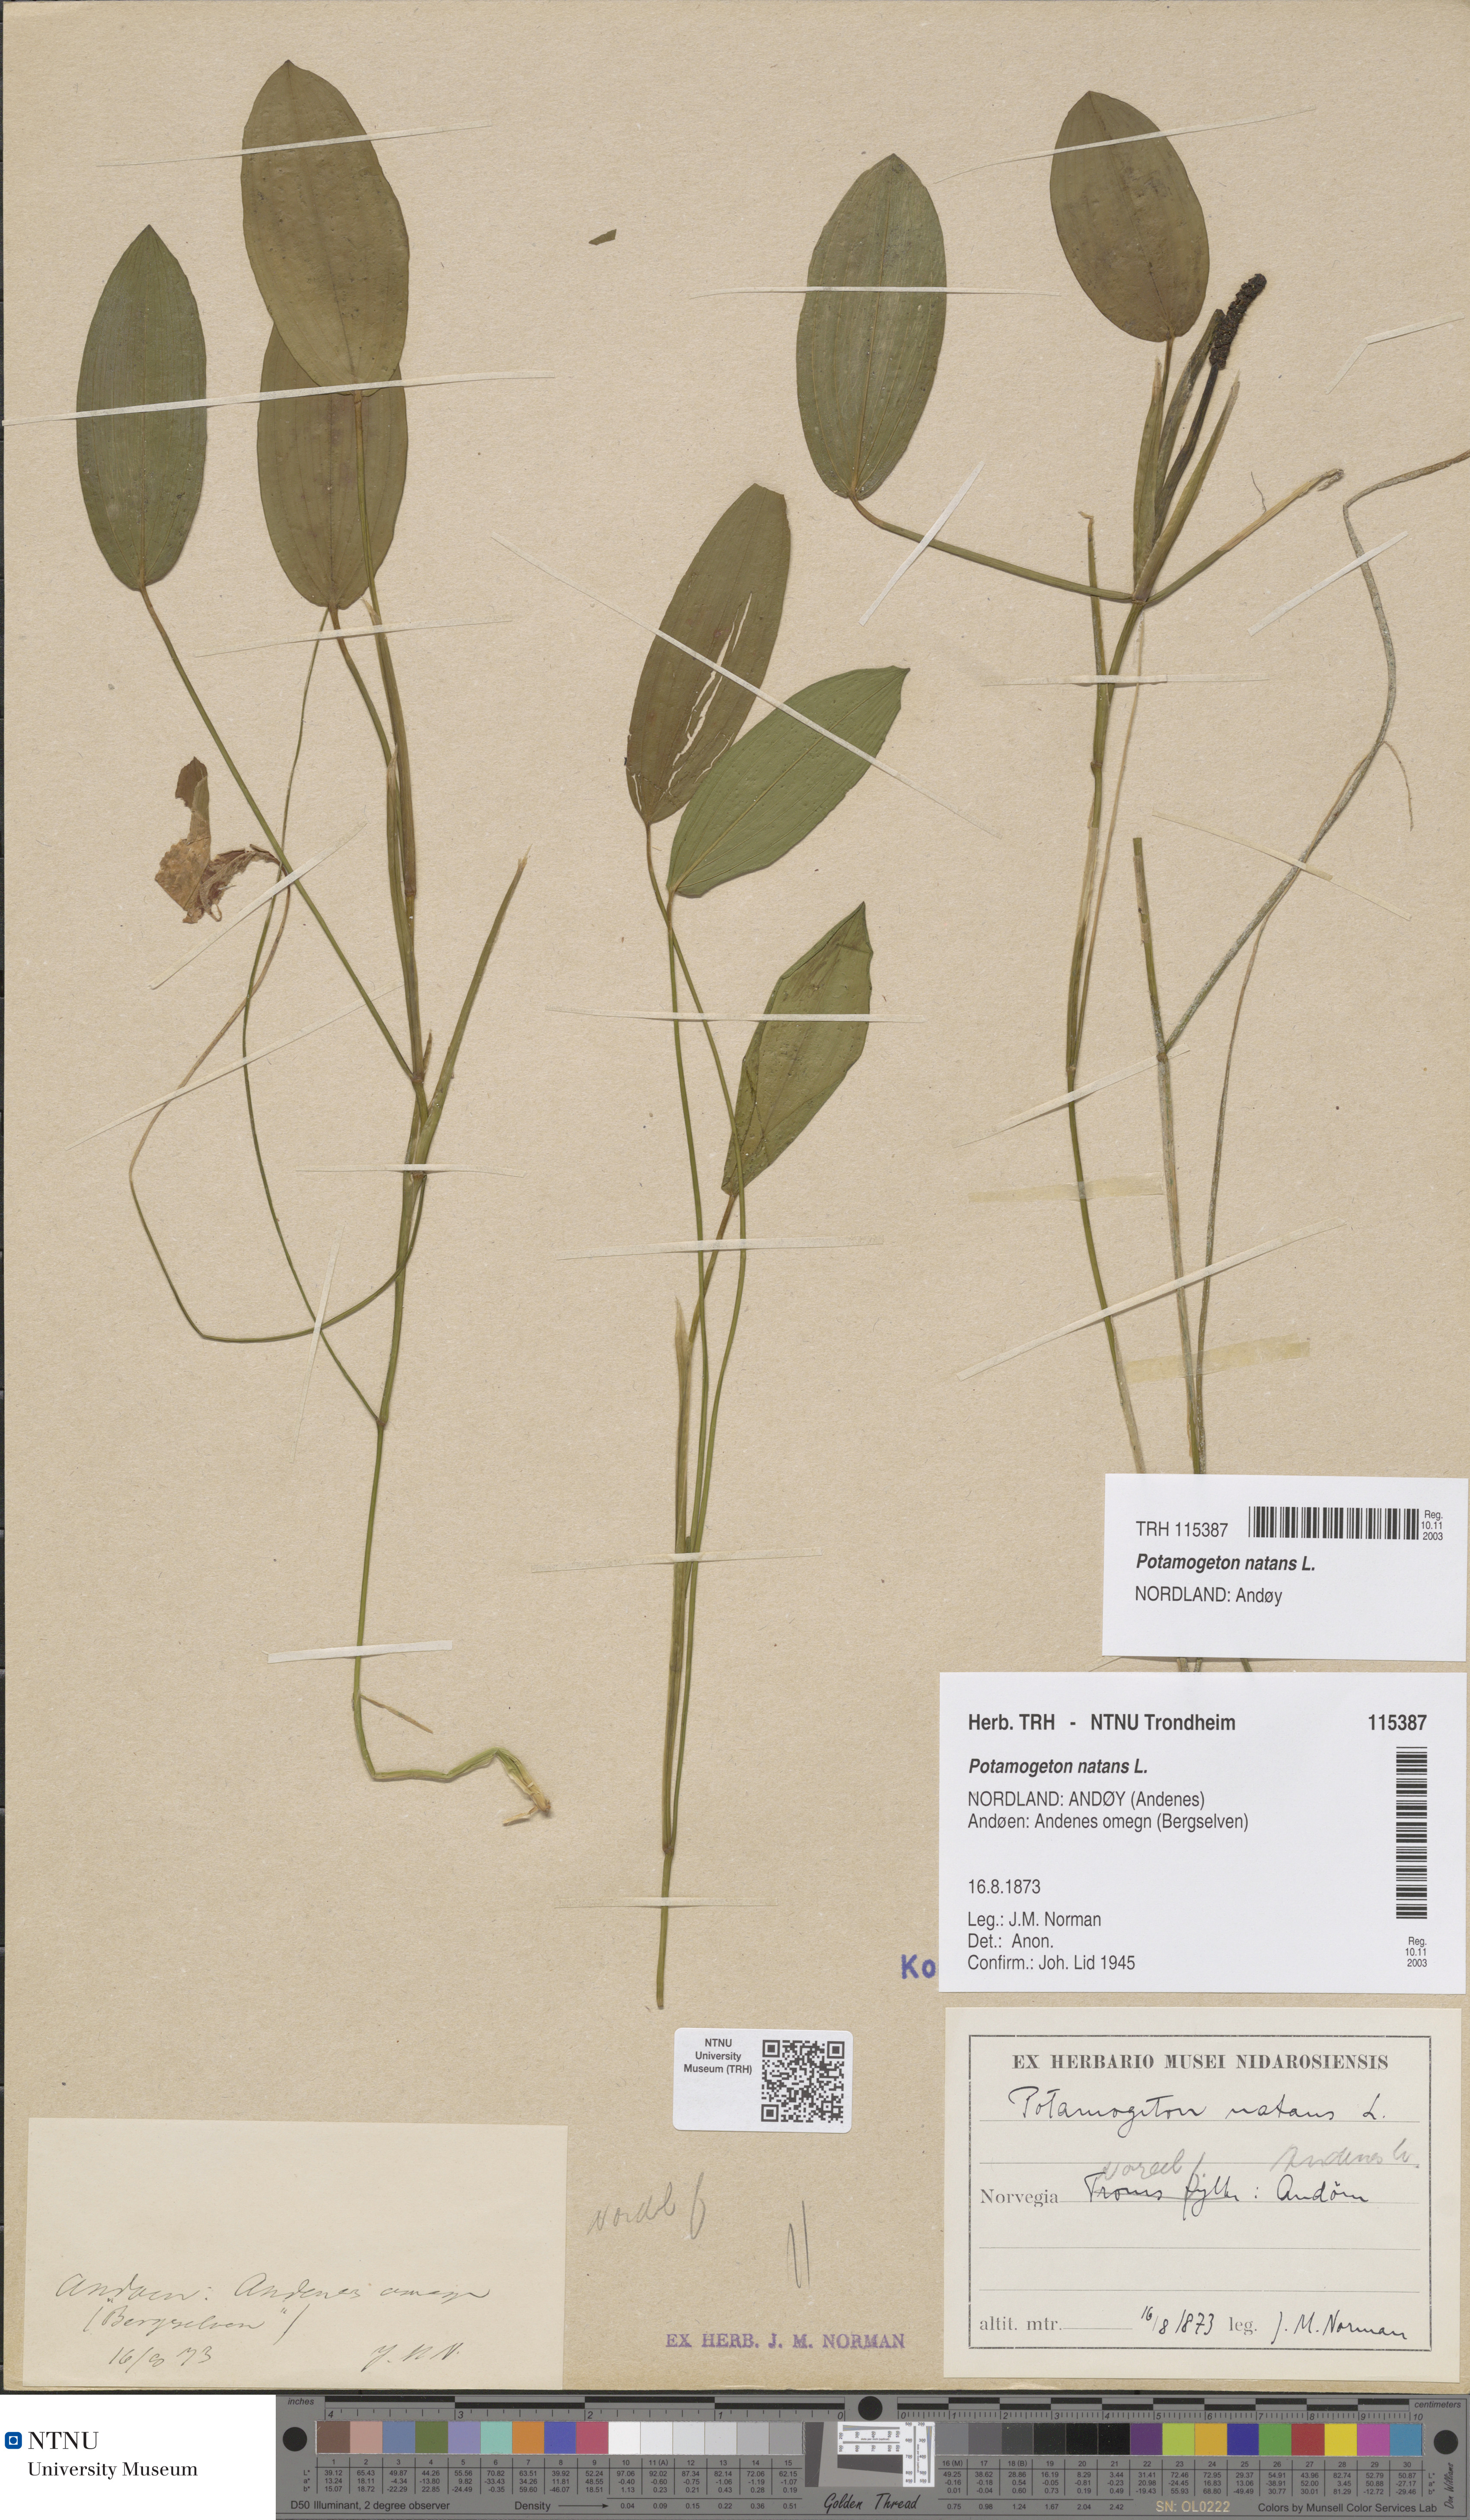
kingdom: Plantae
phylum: Tracheophyta
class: Liliopsida
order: Alismatales
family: Potamogetonaceae
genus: Potamogeton
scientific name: Potamogeton natans
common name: Broad-leaved pondweed
